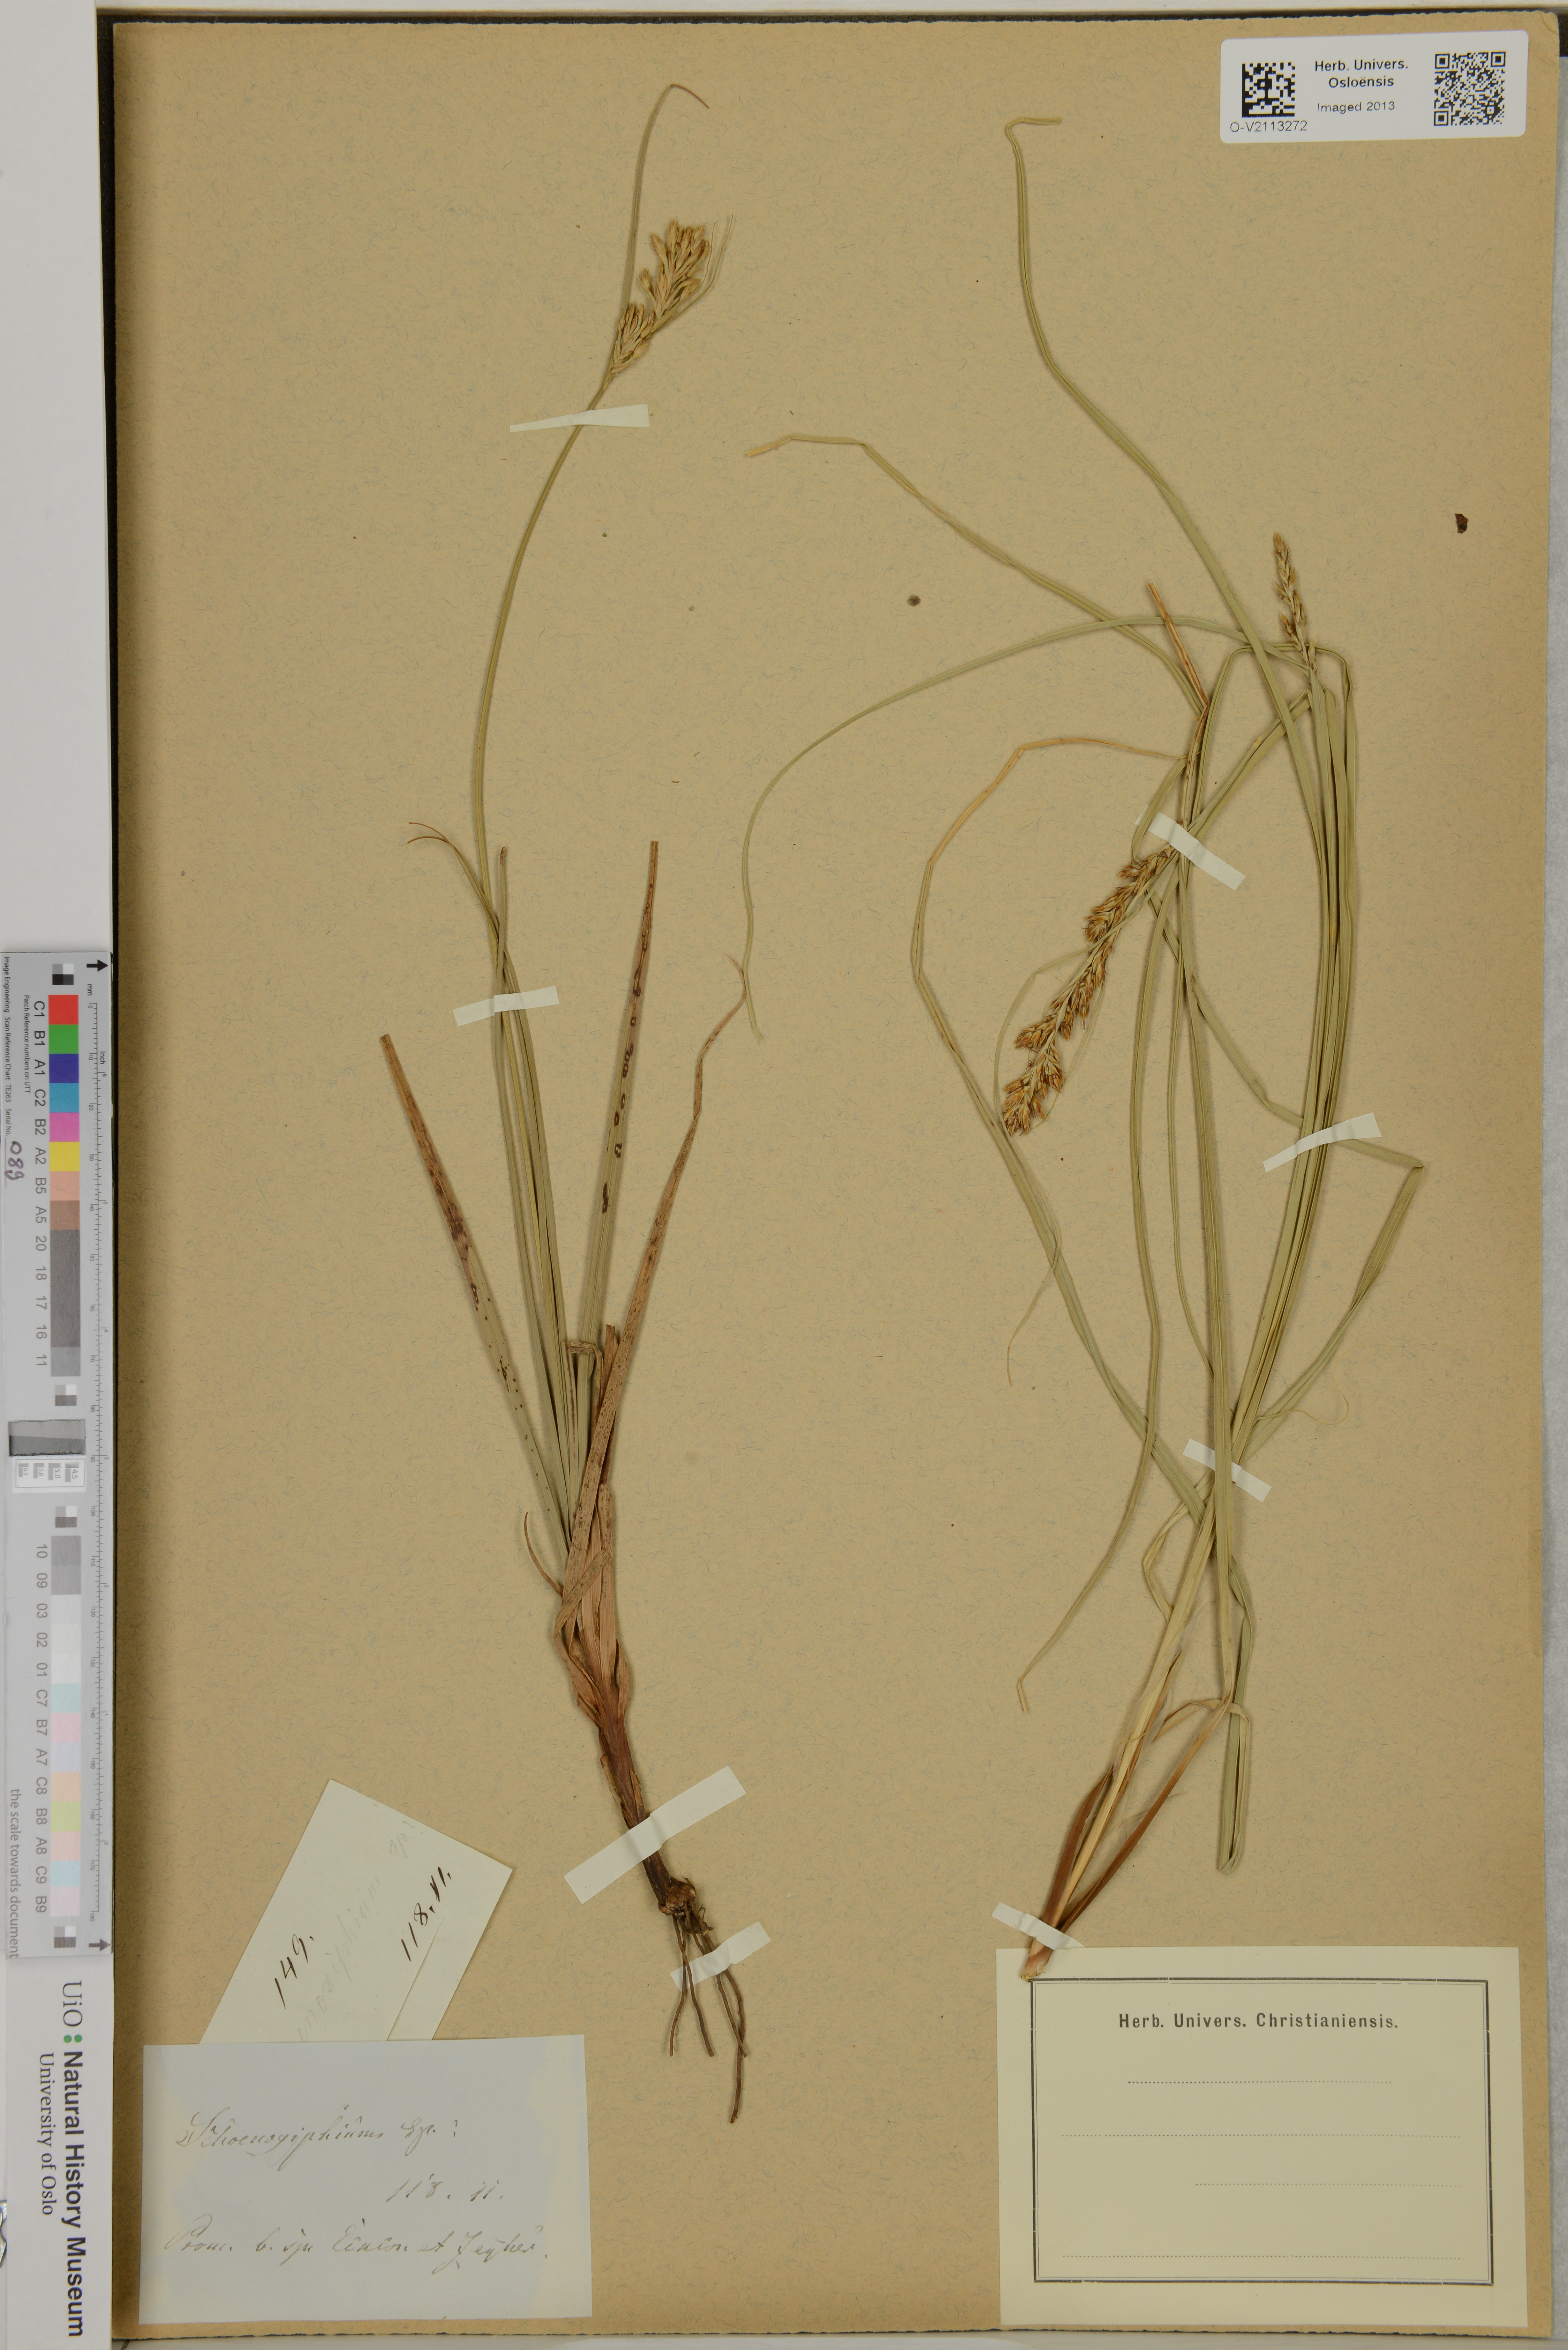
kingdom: Plantae
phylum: Tracheophyta
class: Liliopsida
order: Poales
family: Cyperaceae
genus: Carex
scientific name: Carex
